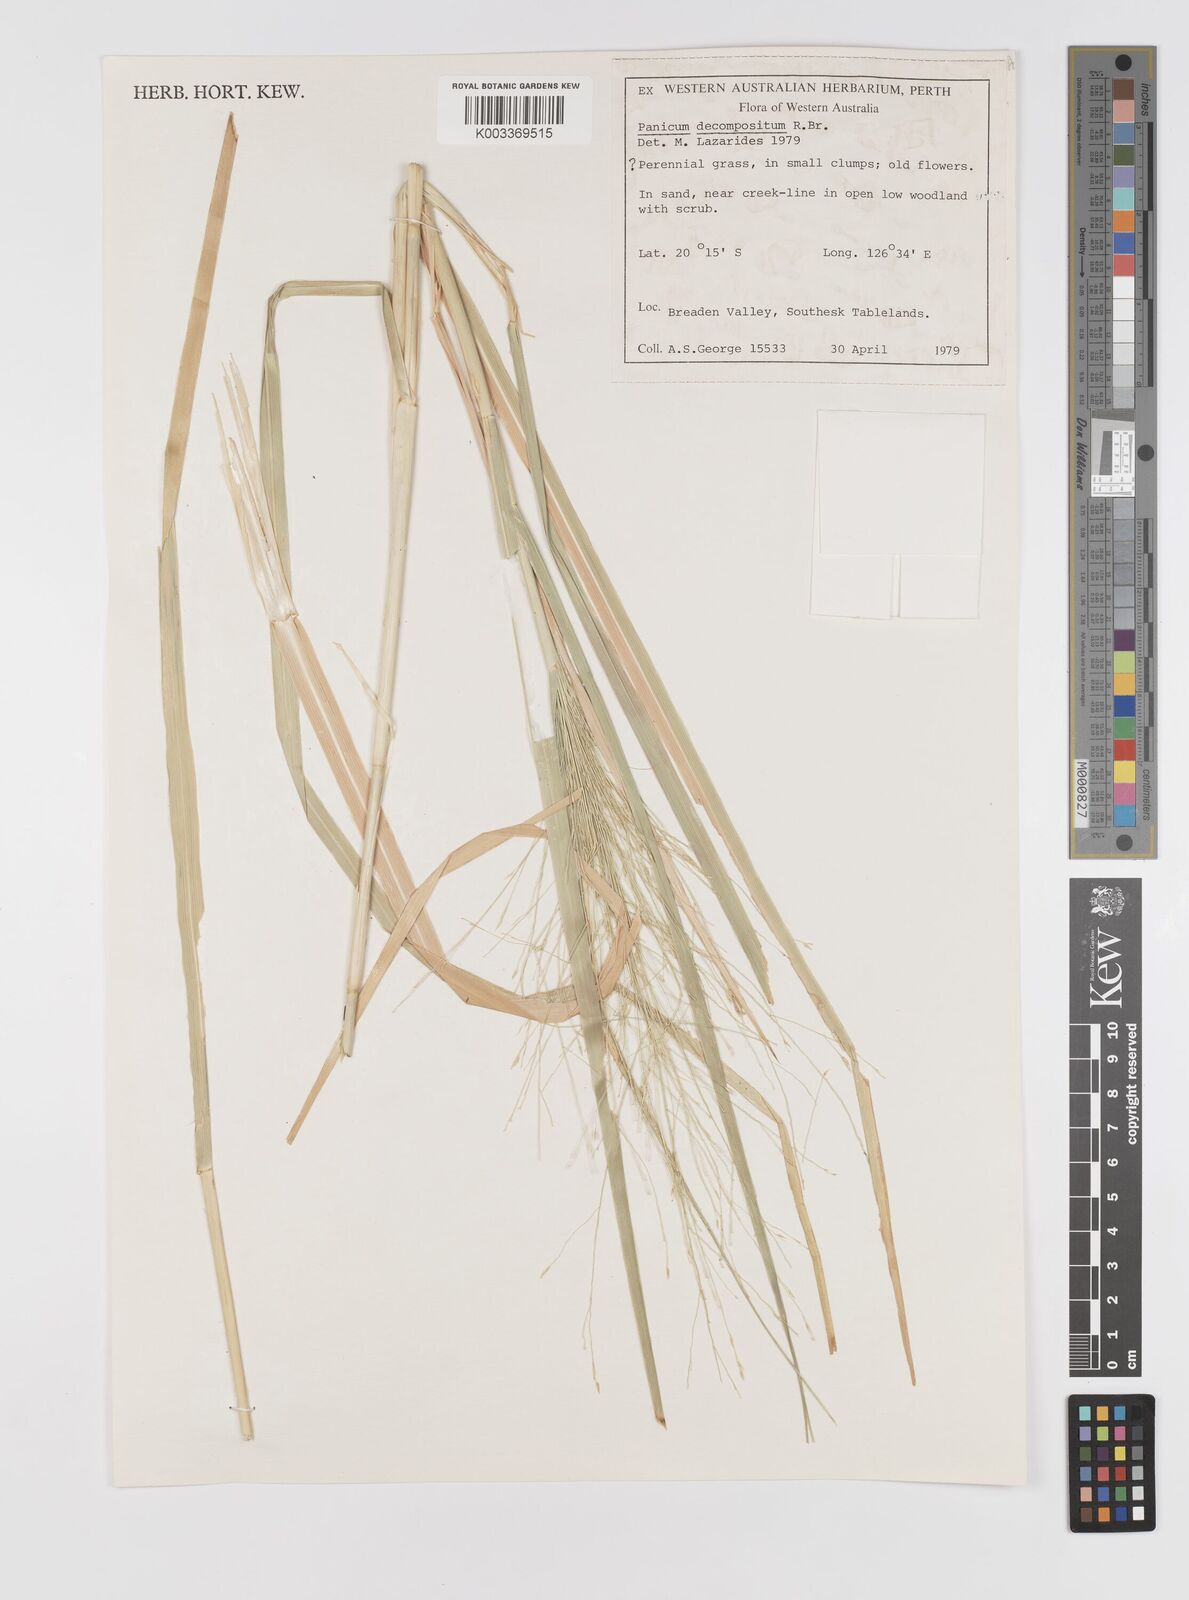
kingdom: Plantae
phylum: Tracheophyta
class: Liliopsida
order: Poales
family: Poaceae
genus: Panicum
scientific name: Panicum decompositum
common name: Australian millet
